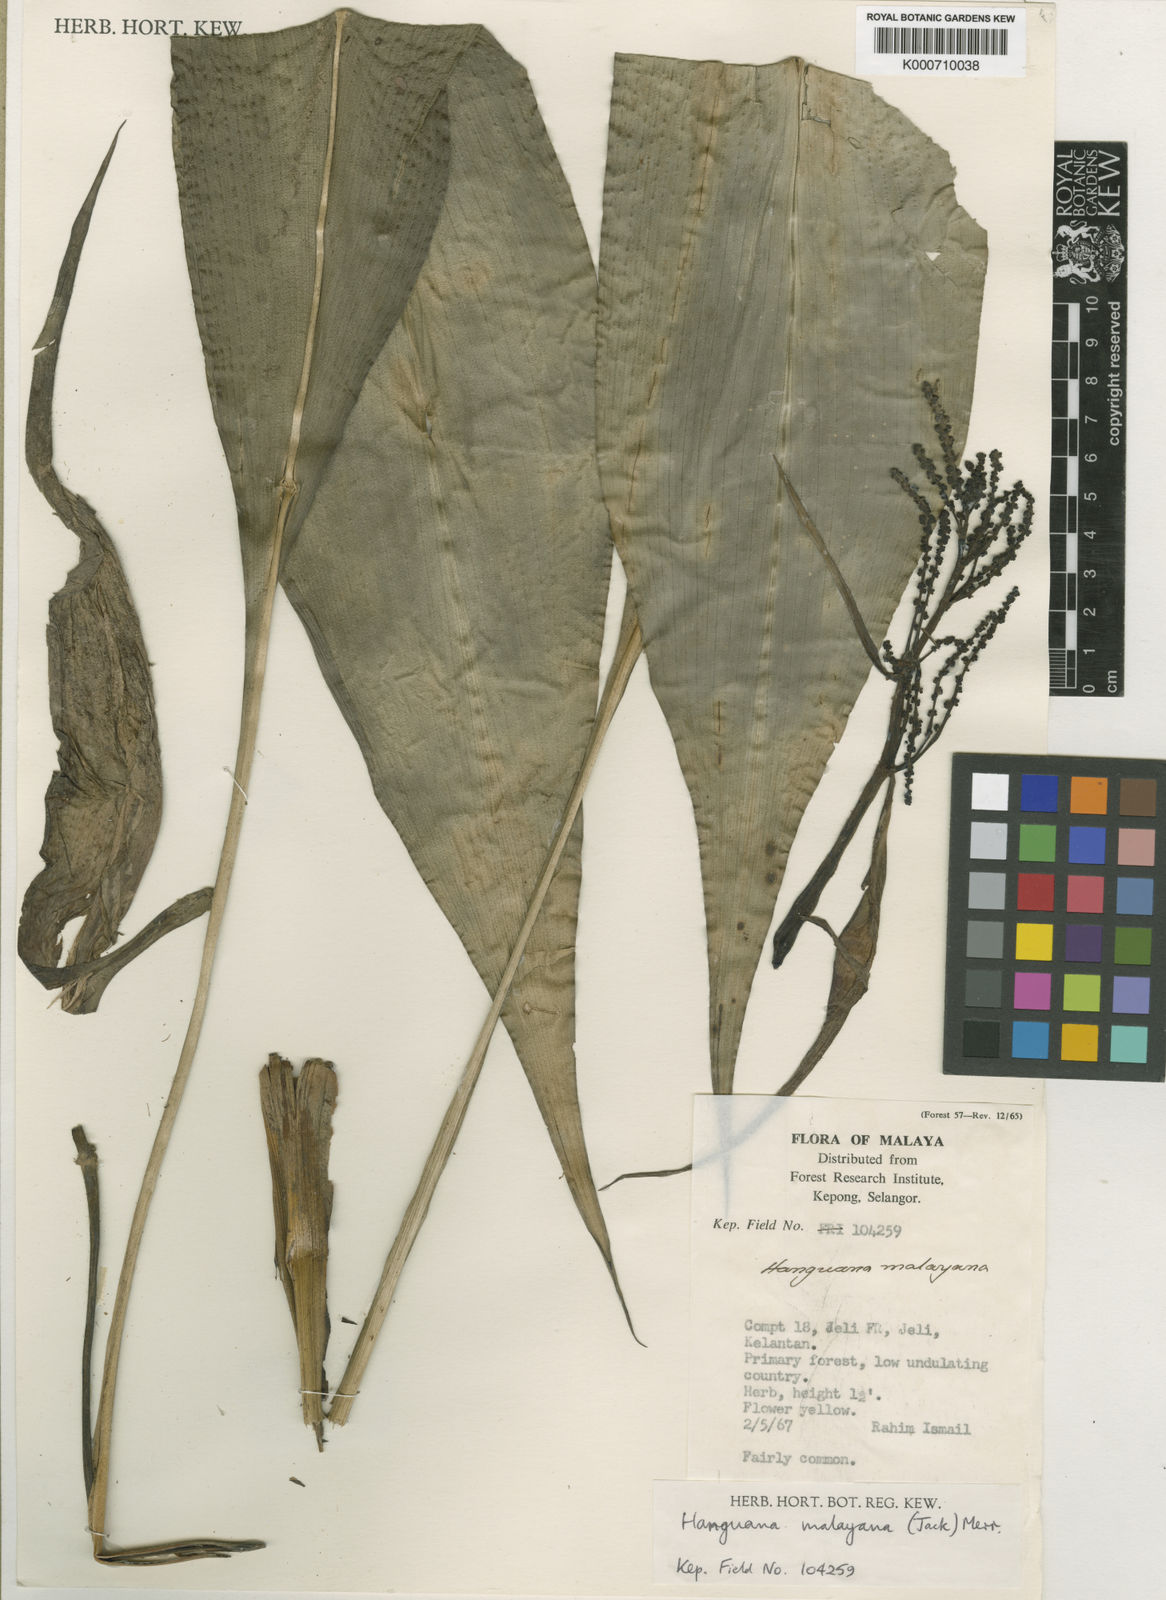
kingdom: Plantae
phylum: Tracheophyta
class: Liliopsida
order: Commelinales
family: Hanguanaceae
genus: Hanguana
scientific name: Hanguana malayana
